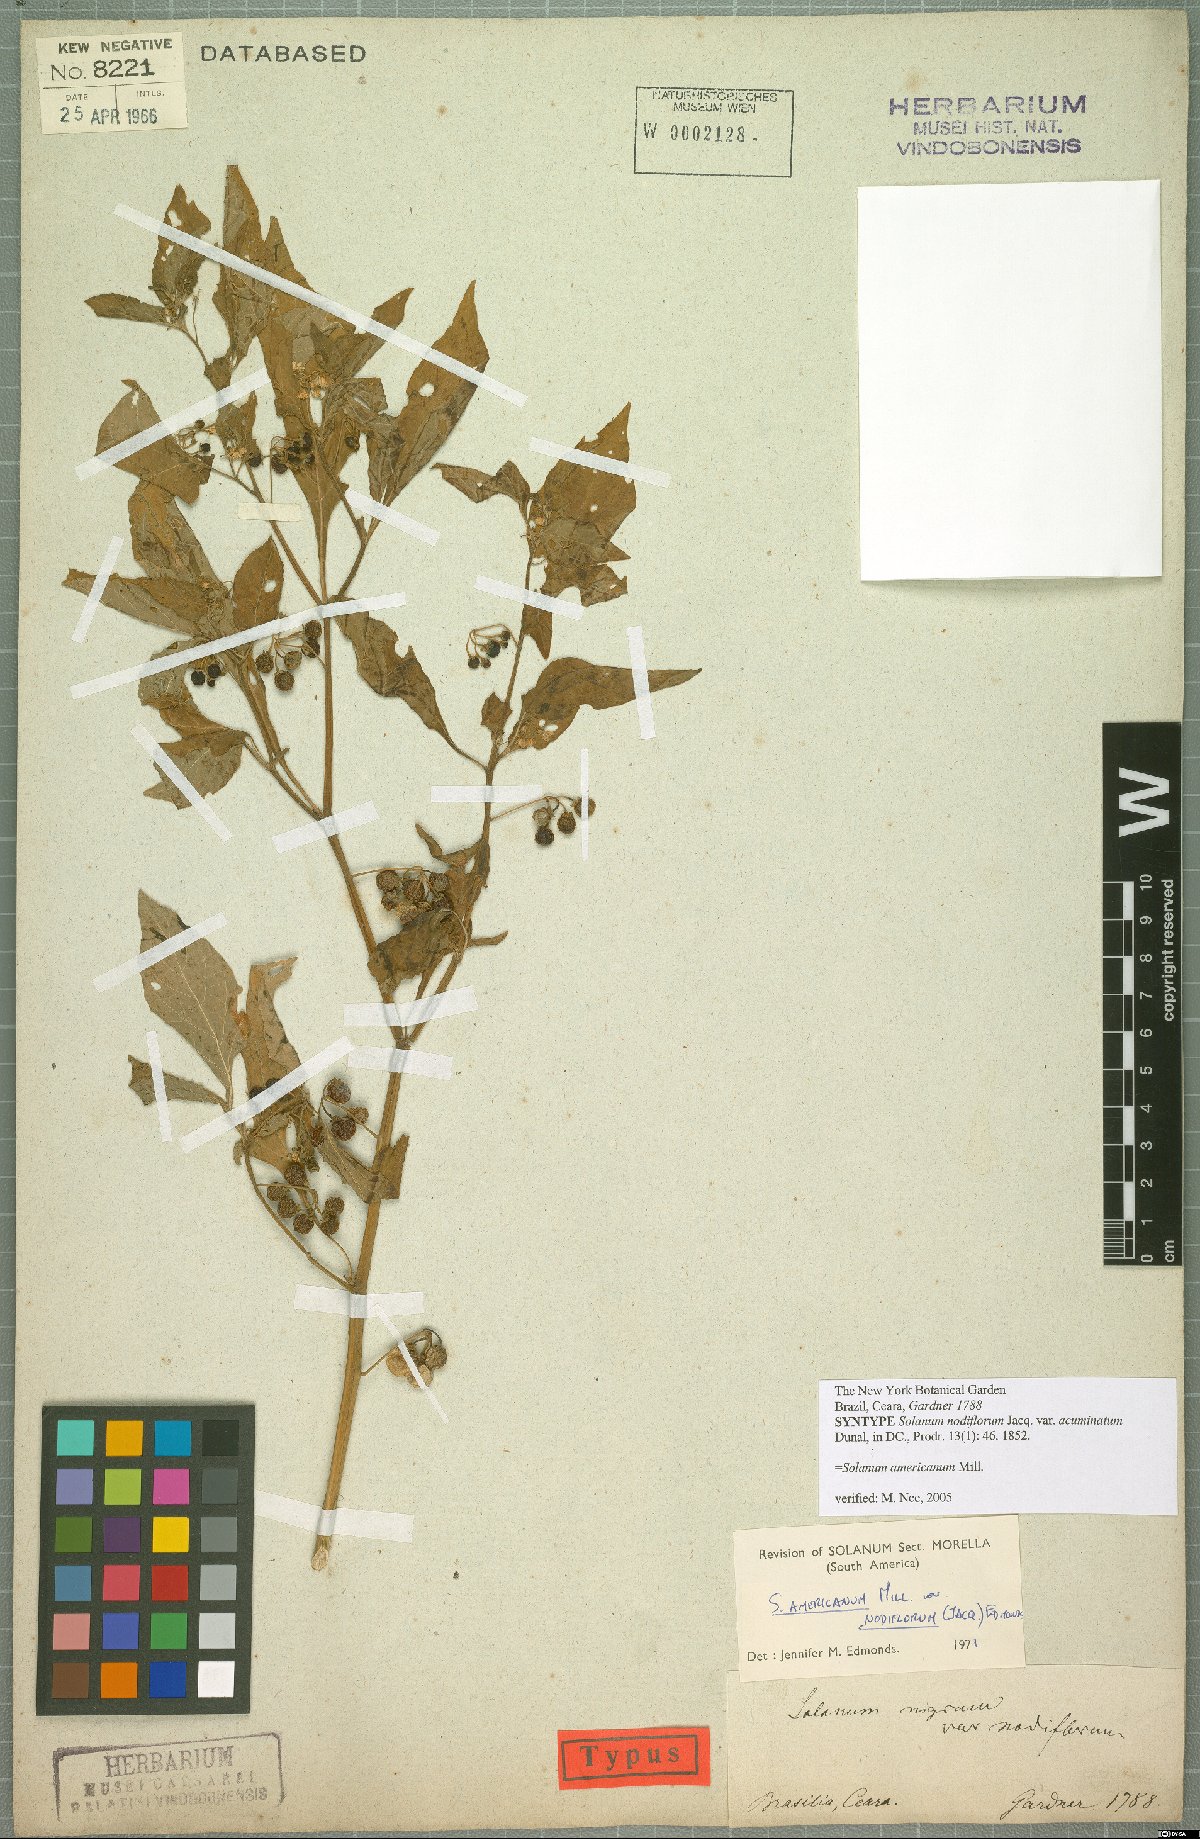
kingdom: Plantae
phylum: Tracheophyta
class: Magnoliopsida
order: Solanales
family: Solanaceae
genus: Solanum
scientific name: Solanum americanum
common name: American black nightshade
